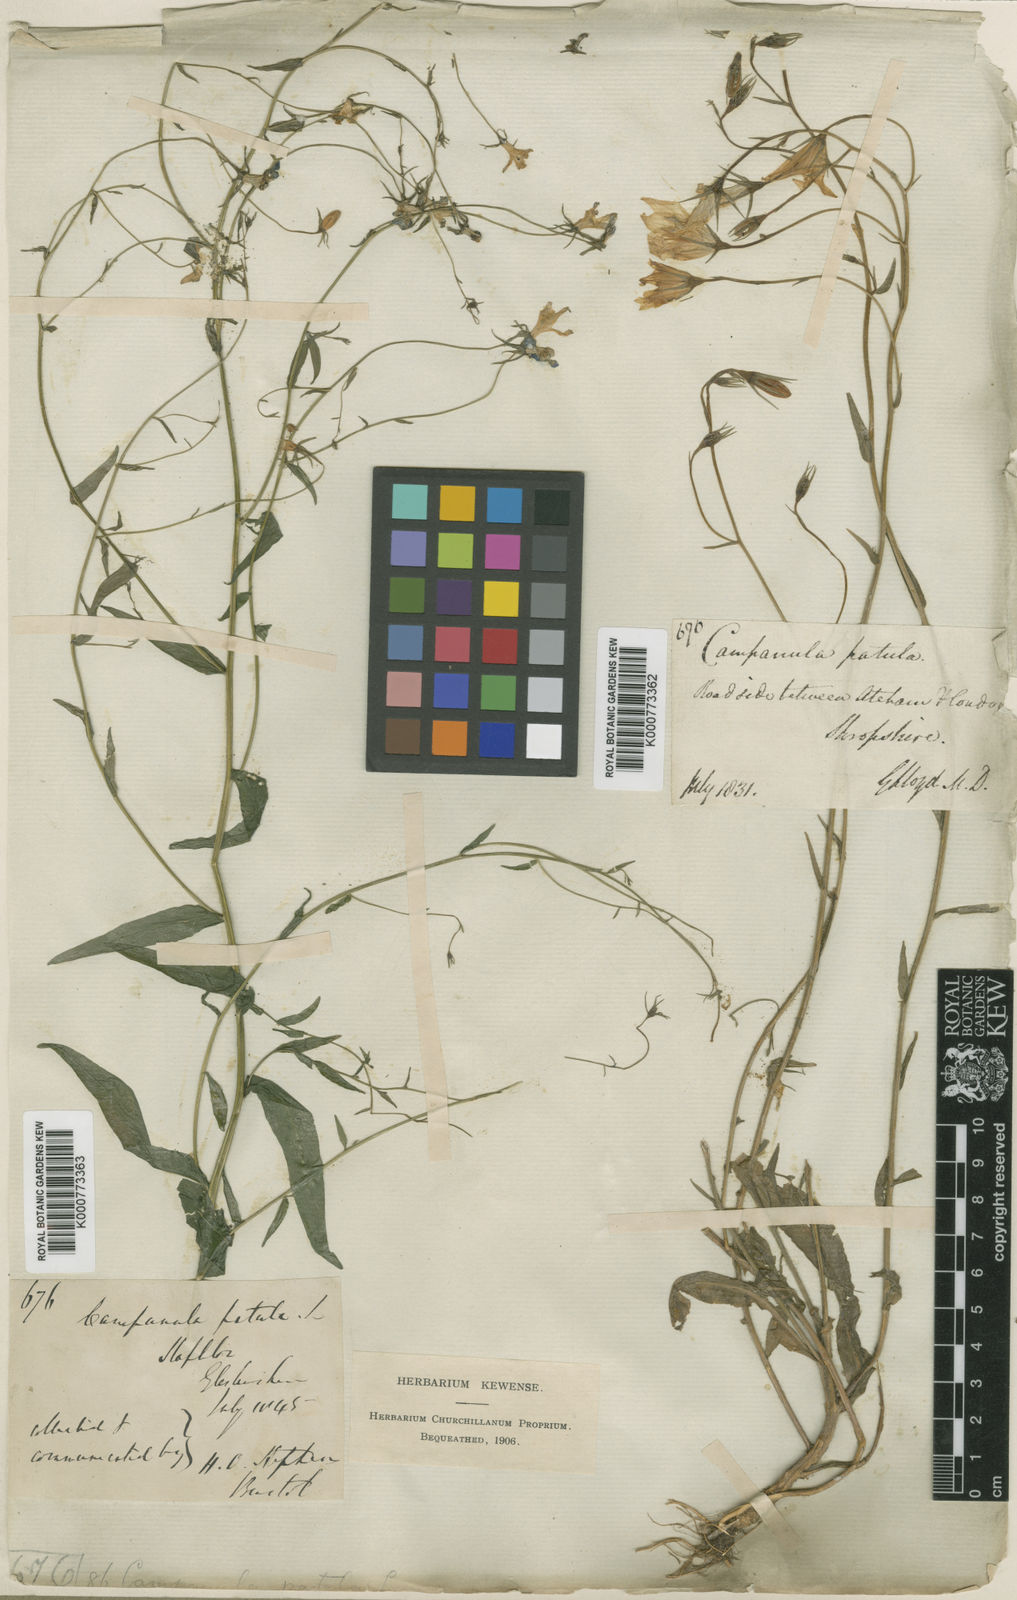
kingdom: Plantae
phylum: Tracheophyta
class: Magnoliopsida
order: Asterales
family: Campanulaceae
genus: Campanula
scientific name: Campanula patula
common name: Spreading bellflower
